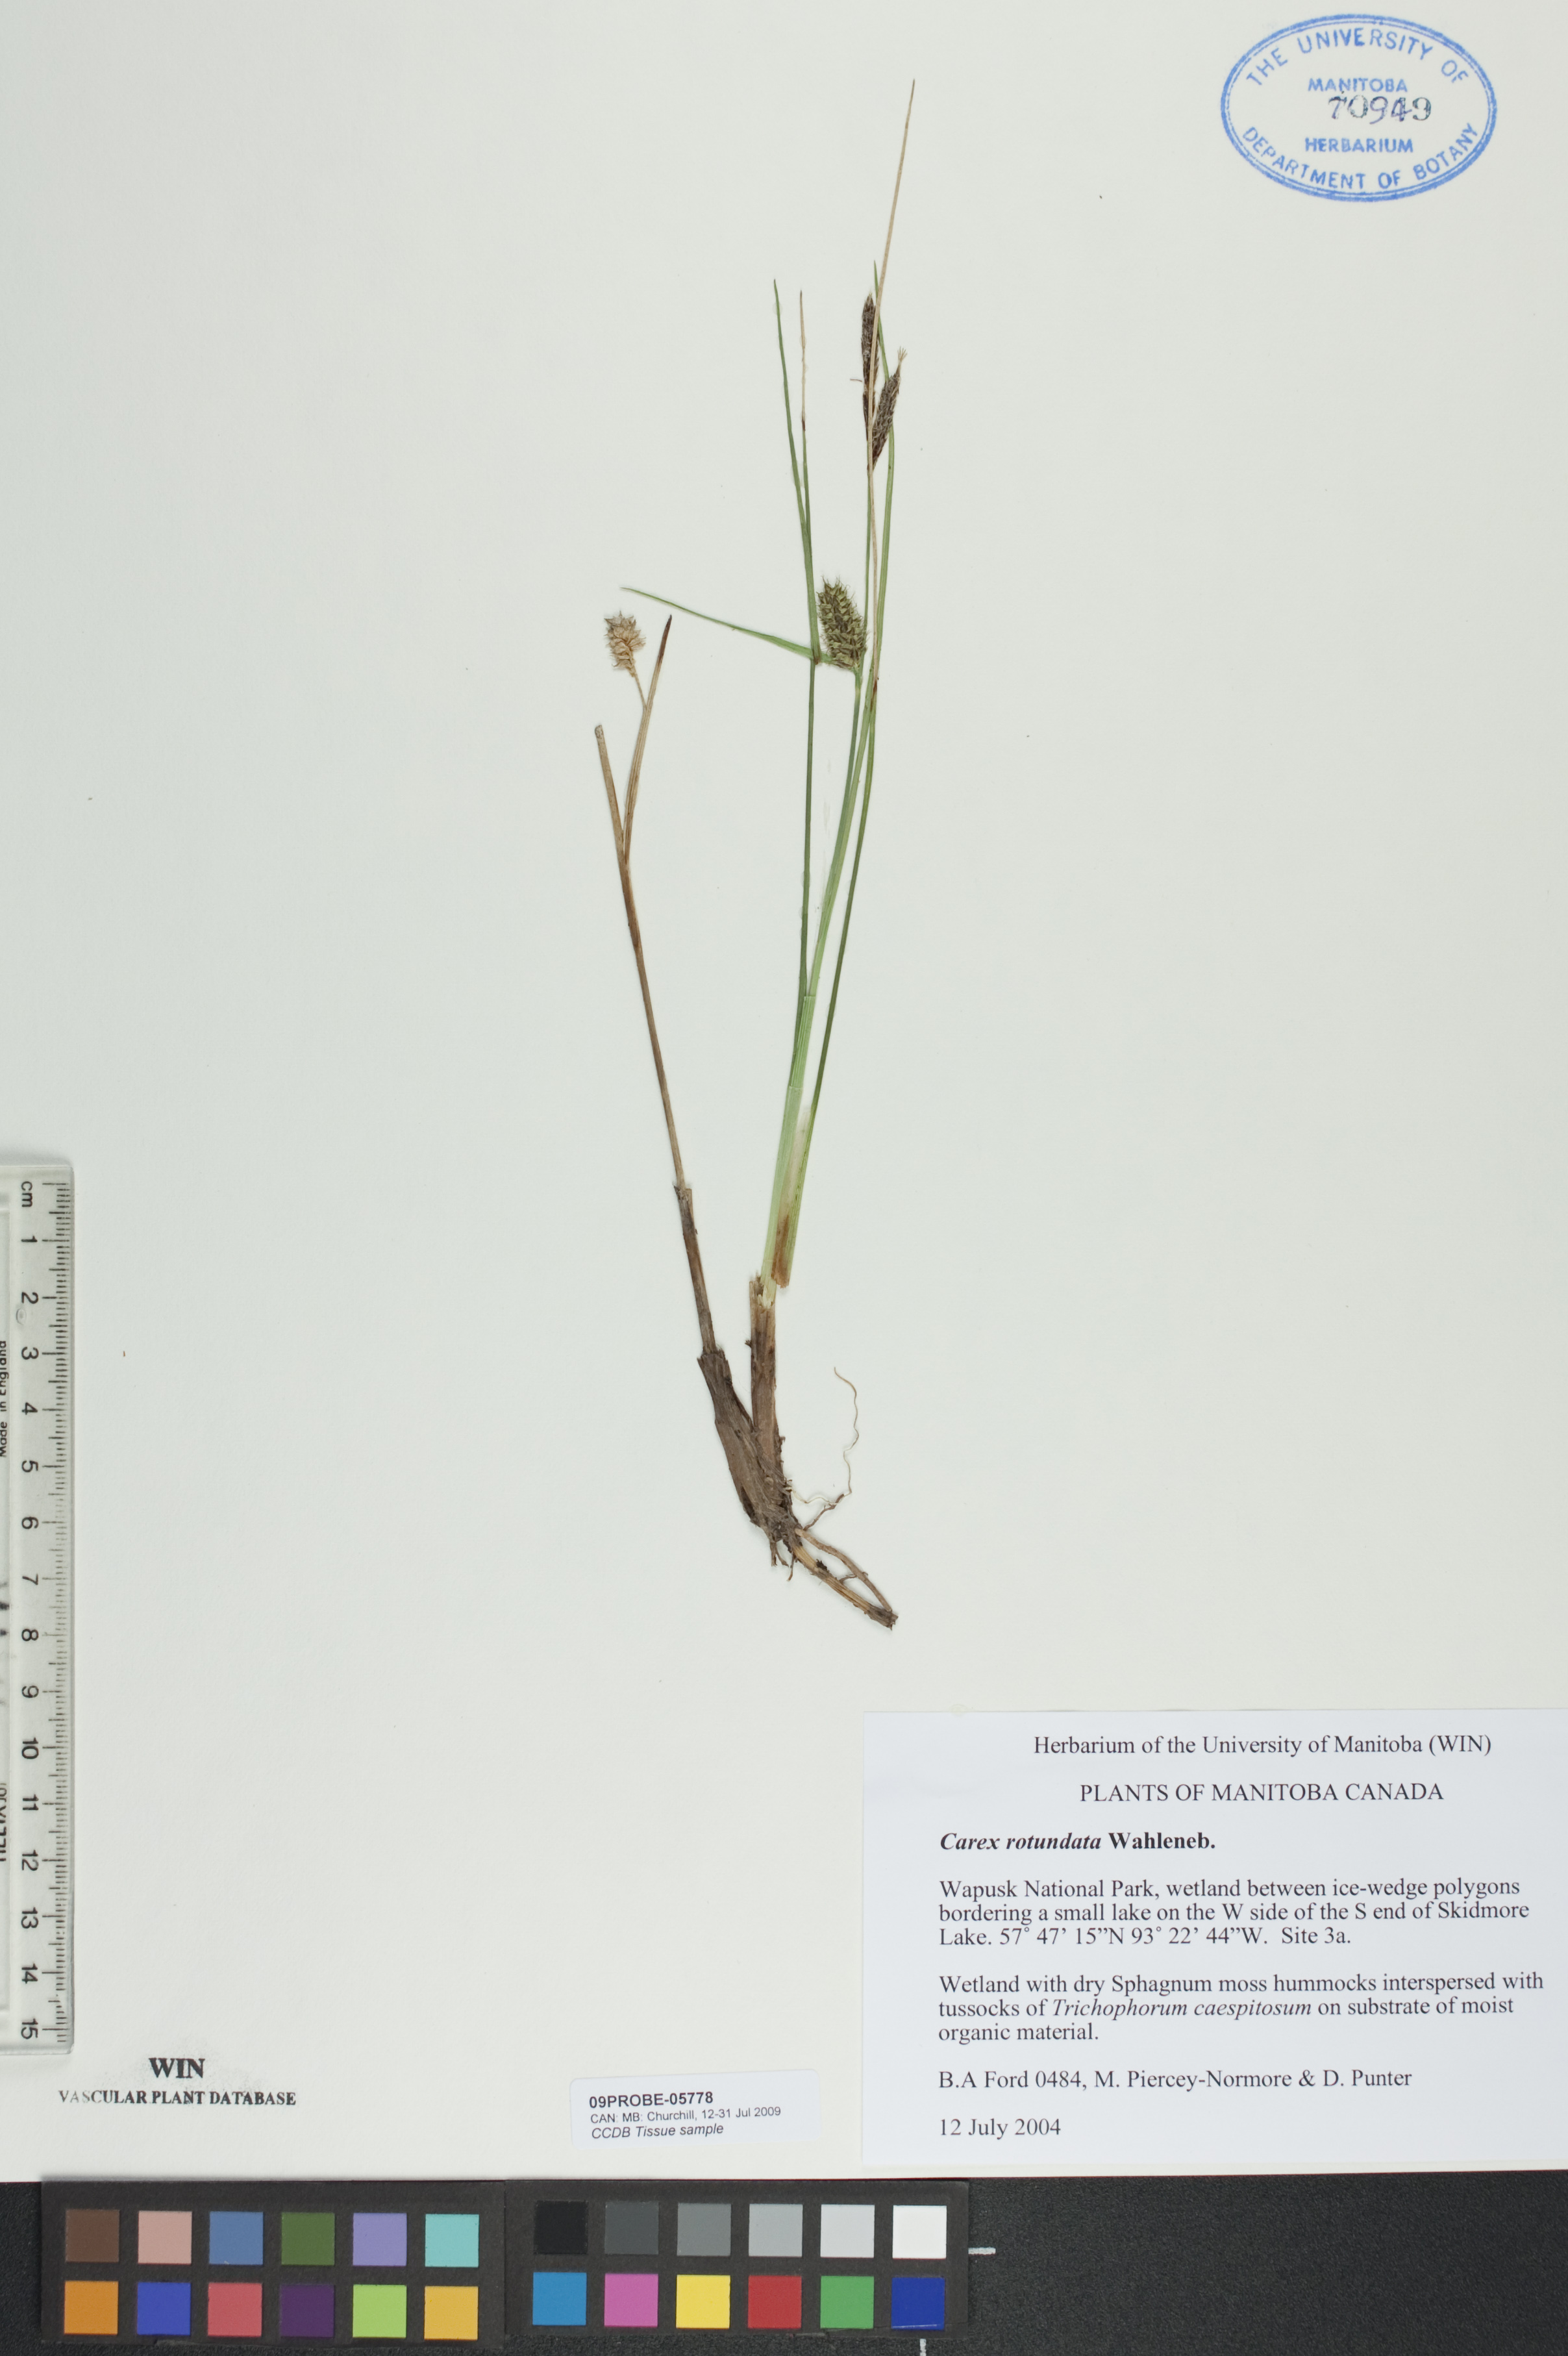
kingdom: Plantae
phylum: Tracheophyta
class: Liliopsida
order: Poales
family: Cyperaceae
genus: Carex
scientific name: Carex rotundata
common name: Round-fruited sedge
